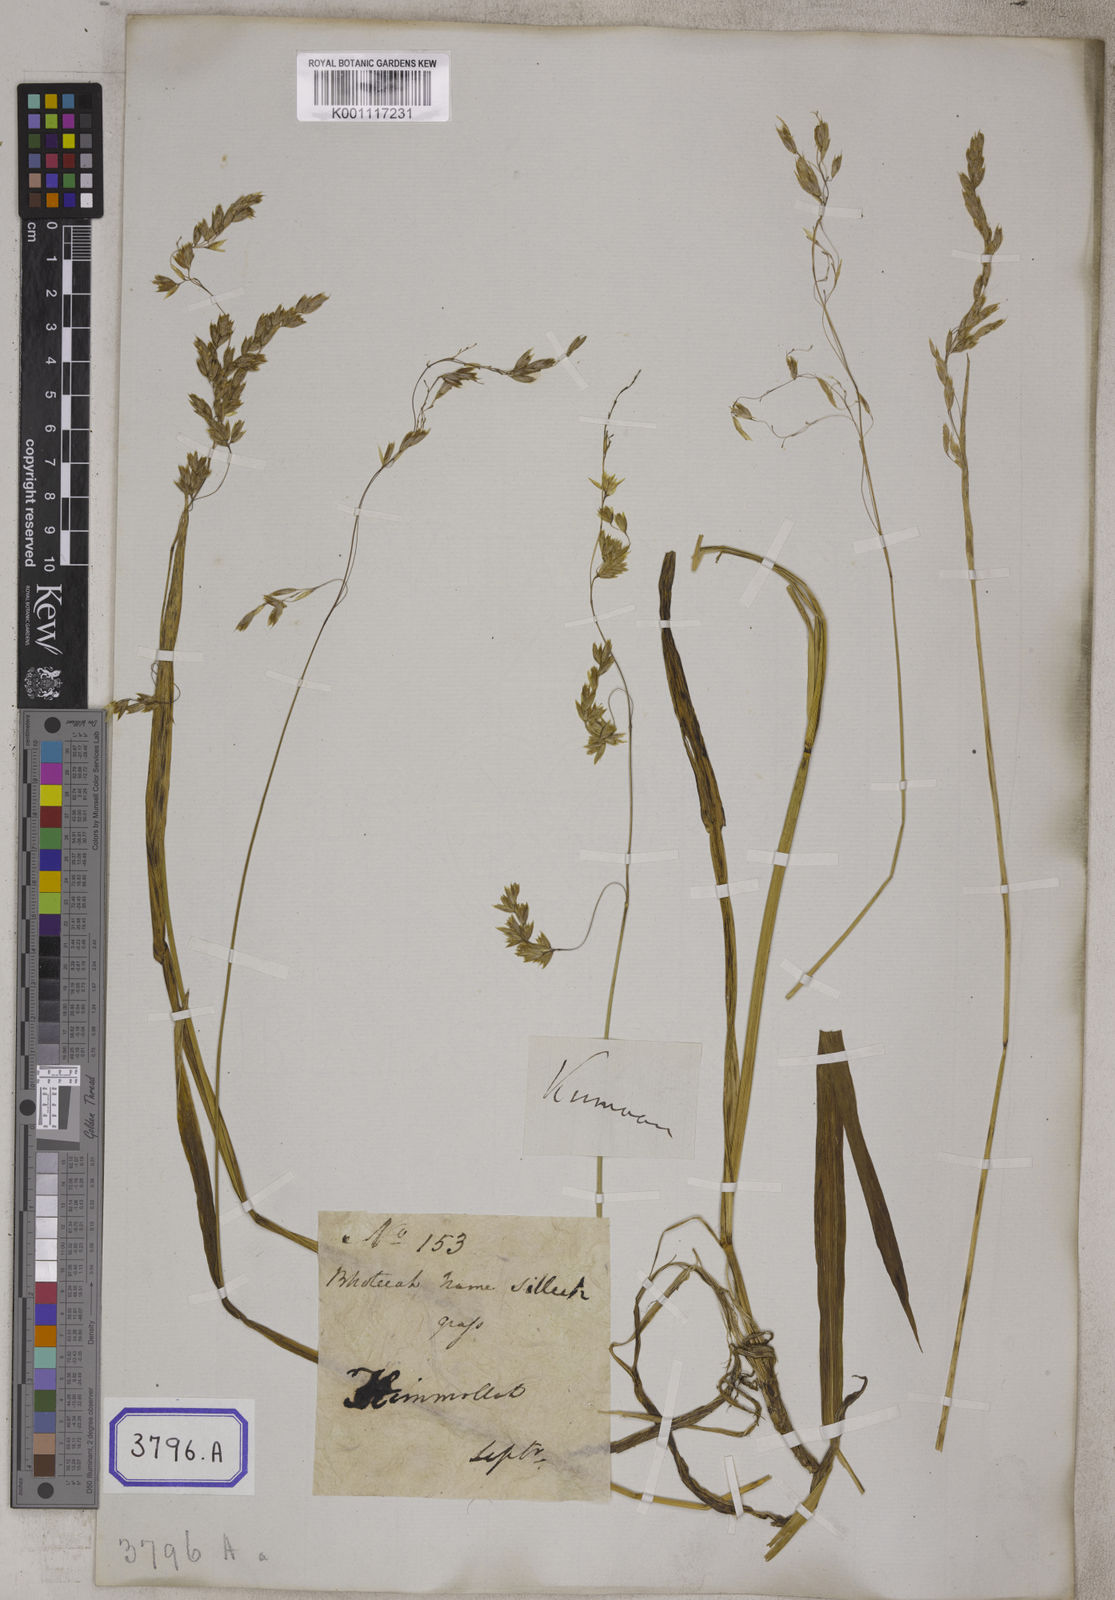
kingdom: Plantae
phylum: Tracheophyta
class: Liliopsida
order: Poales
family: Poaceae
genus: Hierochloe
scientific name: Hierochloe
